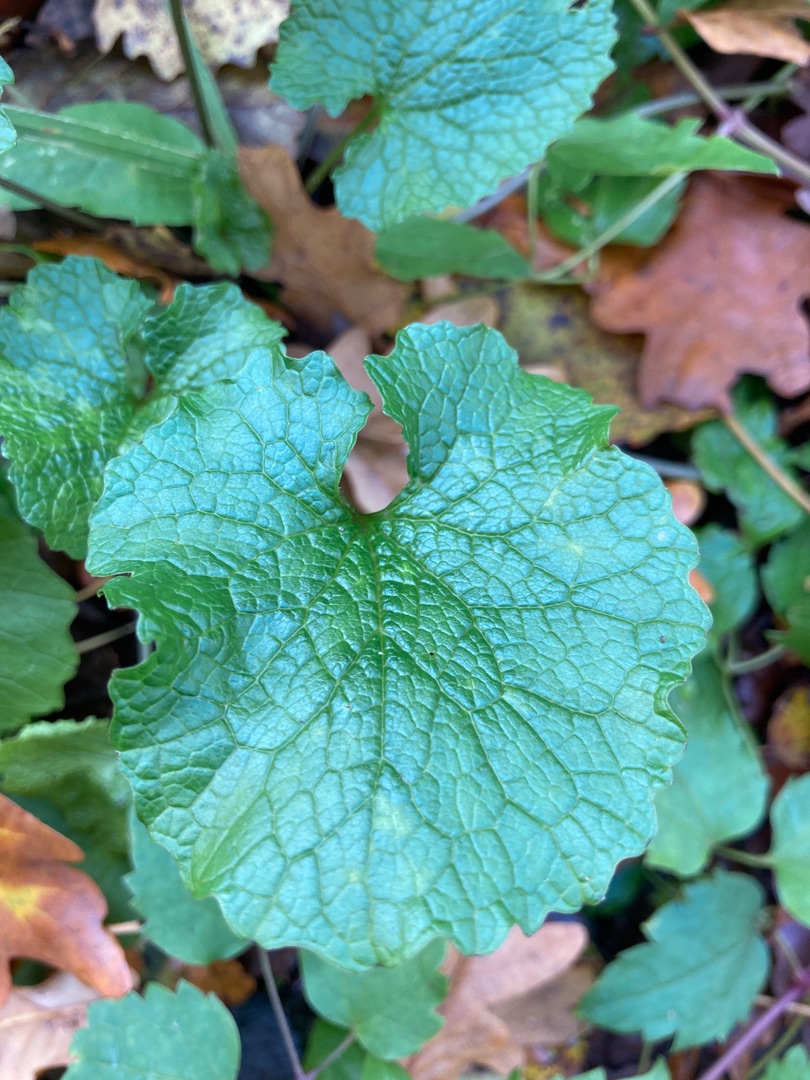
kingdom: Plantae
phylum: Tracheophyta
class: Magnoliopsida
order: Brassicales
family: Brassicaceae
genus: Alliaria
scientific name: Alliaria petiolata
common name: Løgkarse
